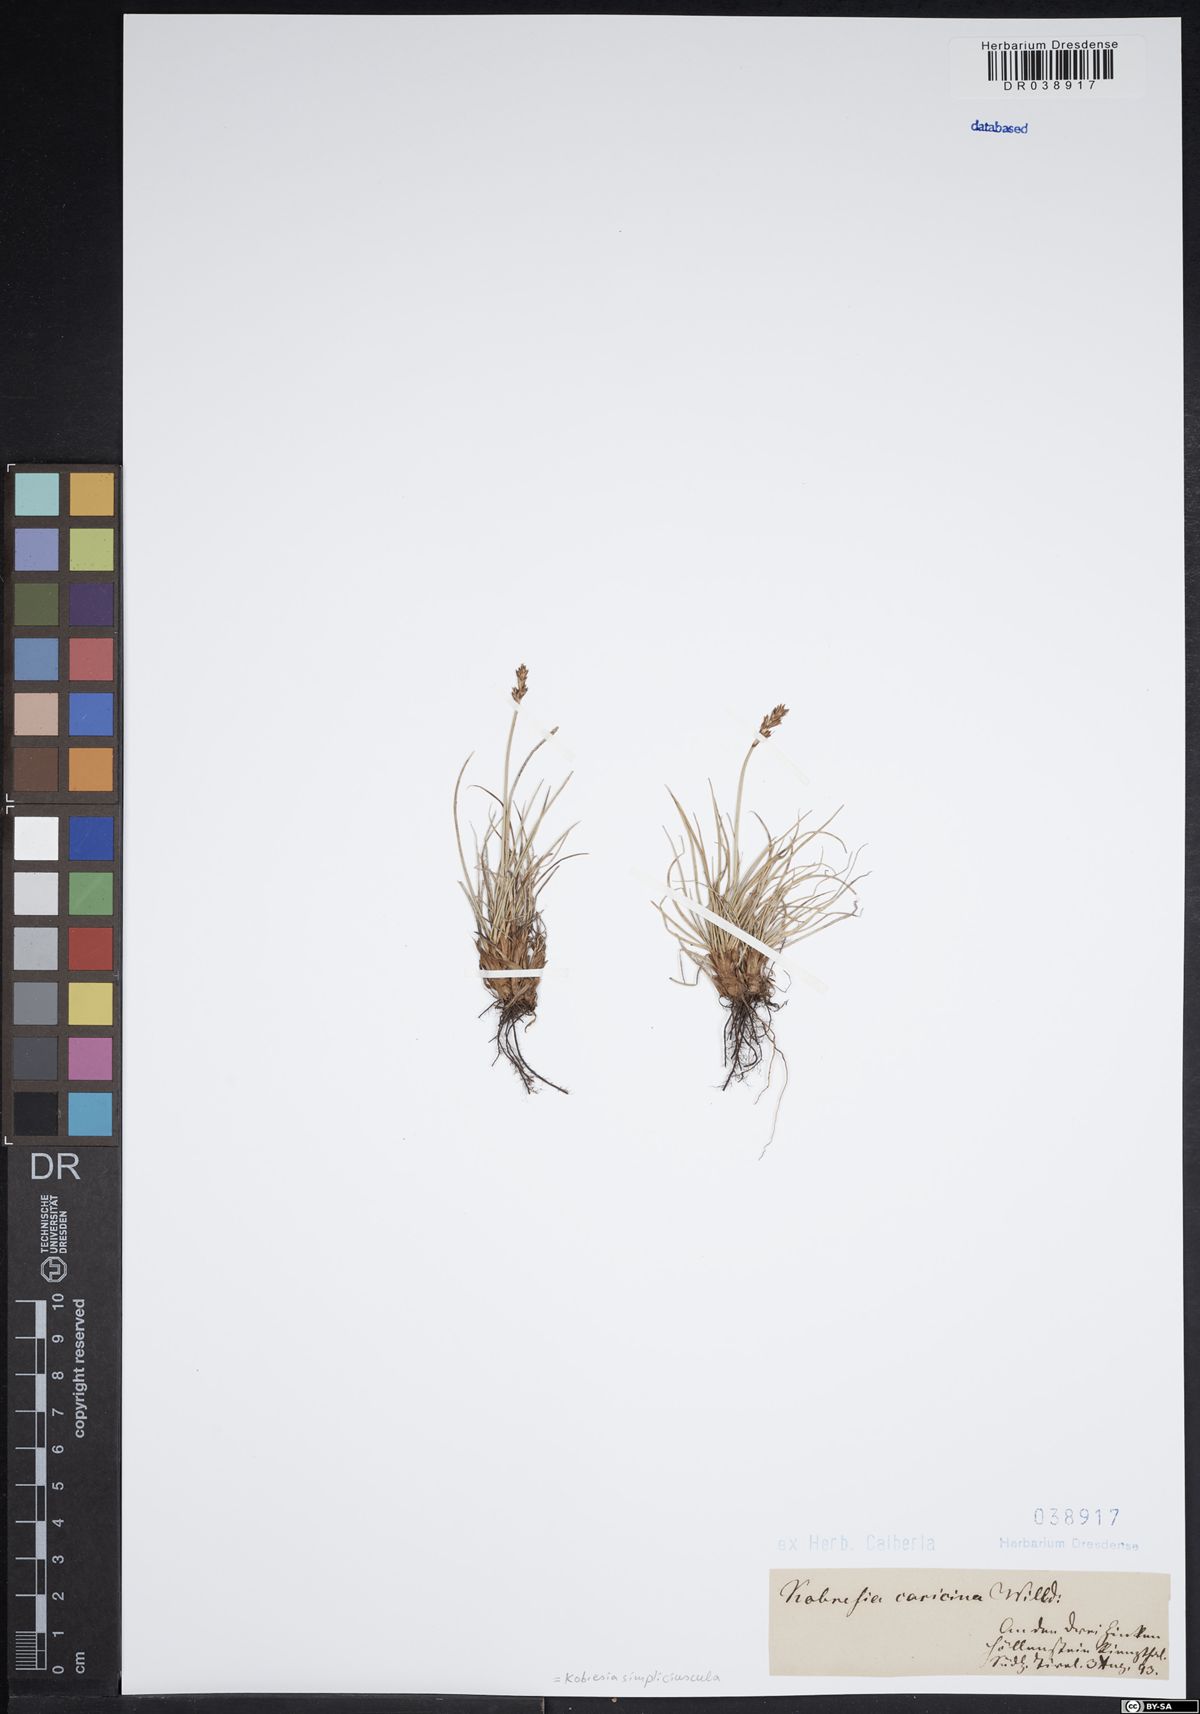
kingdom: Plantae
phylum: Tracheophyta
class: Liliopsida
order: Poales
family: Cyperaceae
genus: Carex
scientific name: Carex simpliciuscula
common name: Simple bog sedge
